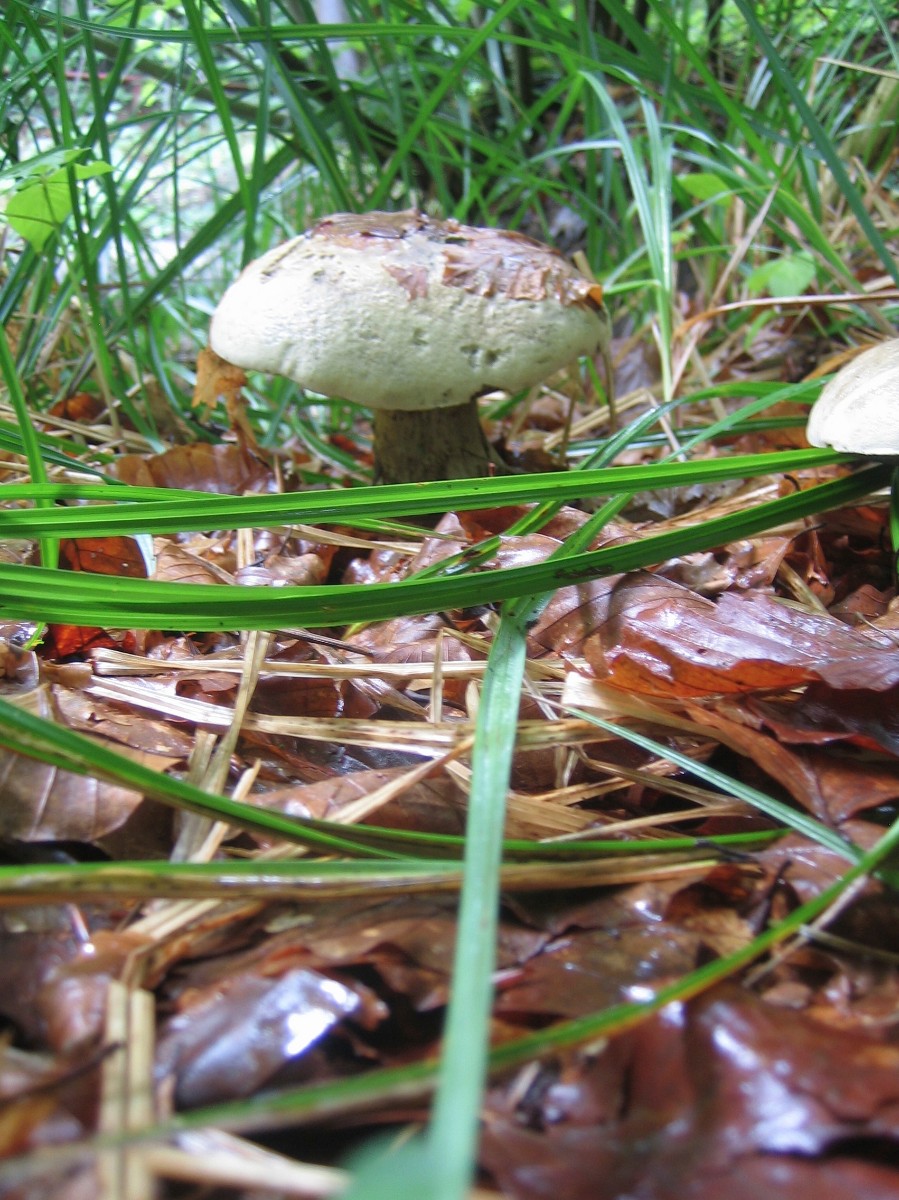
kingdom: Fungi
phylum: Basidiomycota
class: Agaricomycetes
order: Boletales
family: Boletaceae
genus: Caloboletus
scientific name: Caloboletus radicans
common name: rod-rørhat
